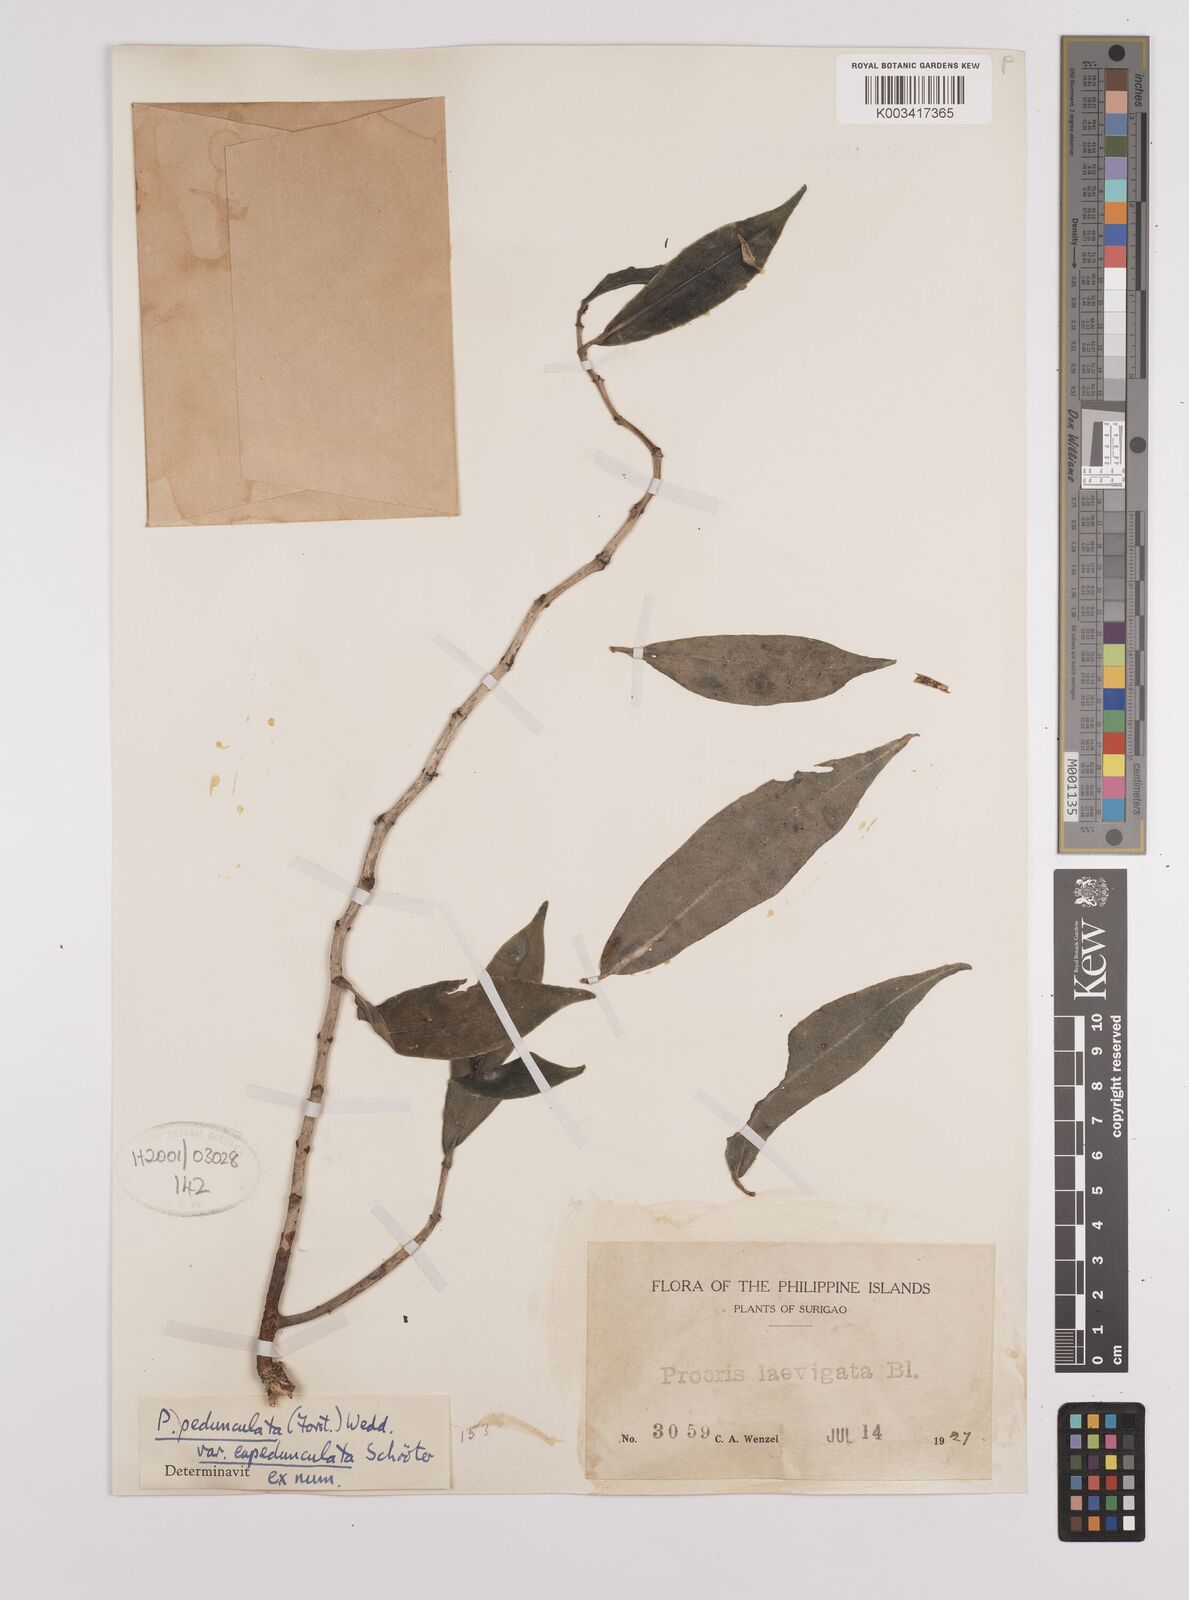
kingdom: Plantae
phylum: Tracheophyta
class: Magnoliopsida
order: Rosales
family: Urticaceae
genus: Procris
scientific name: Procris pedunculata
